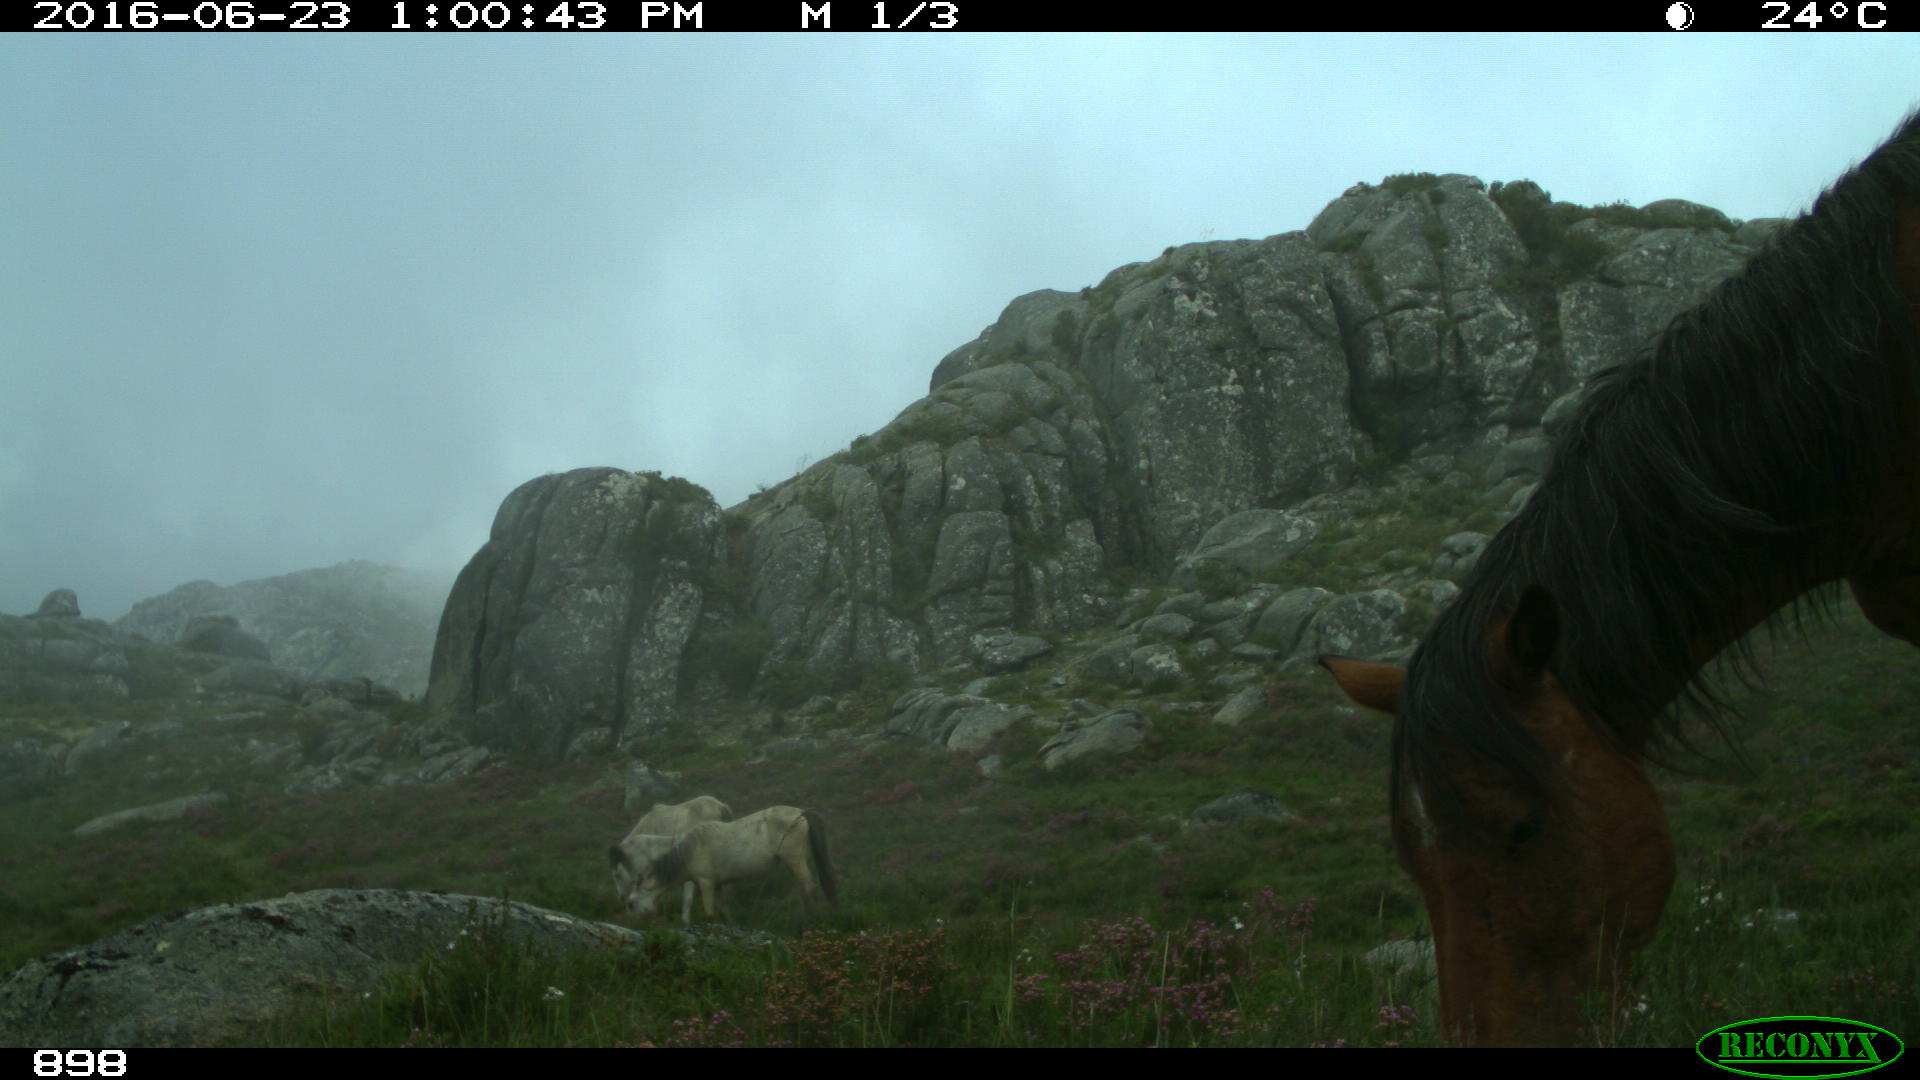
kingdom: Animalia
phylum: Chordata
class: Mammalia
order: Perissodactyla
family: Equidae
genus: Equus
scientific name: Equus caballus
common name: Horse
